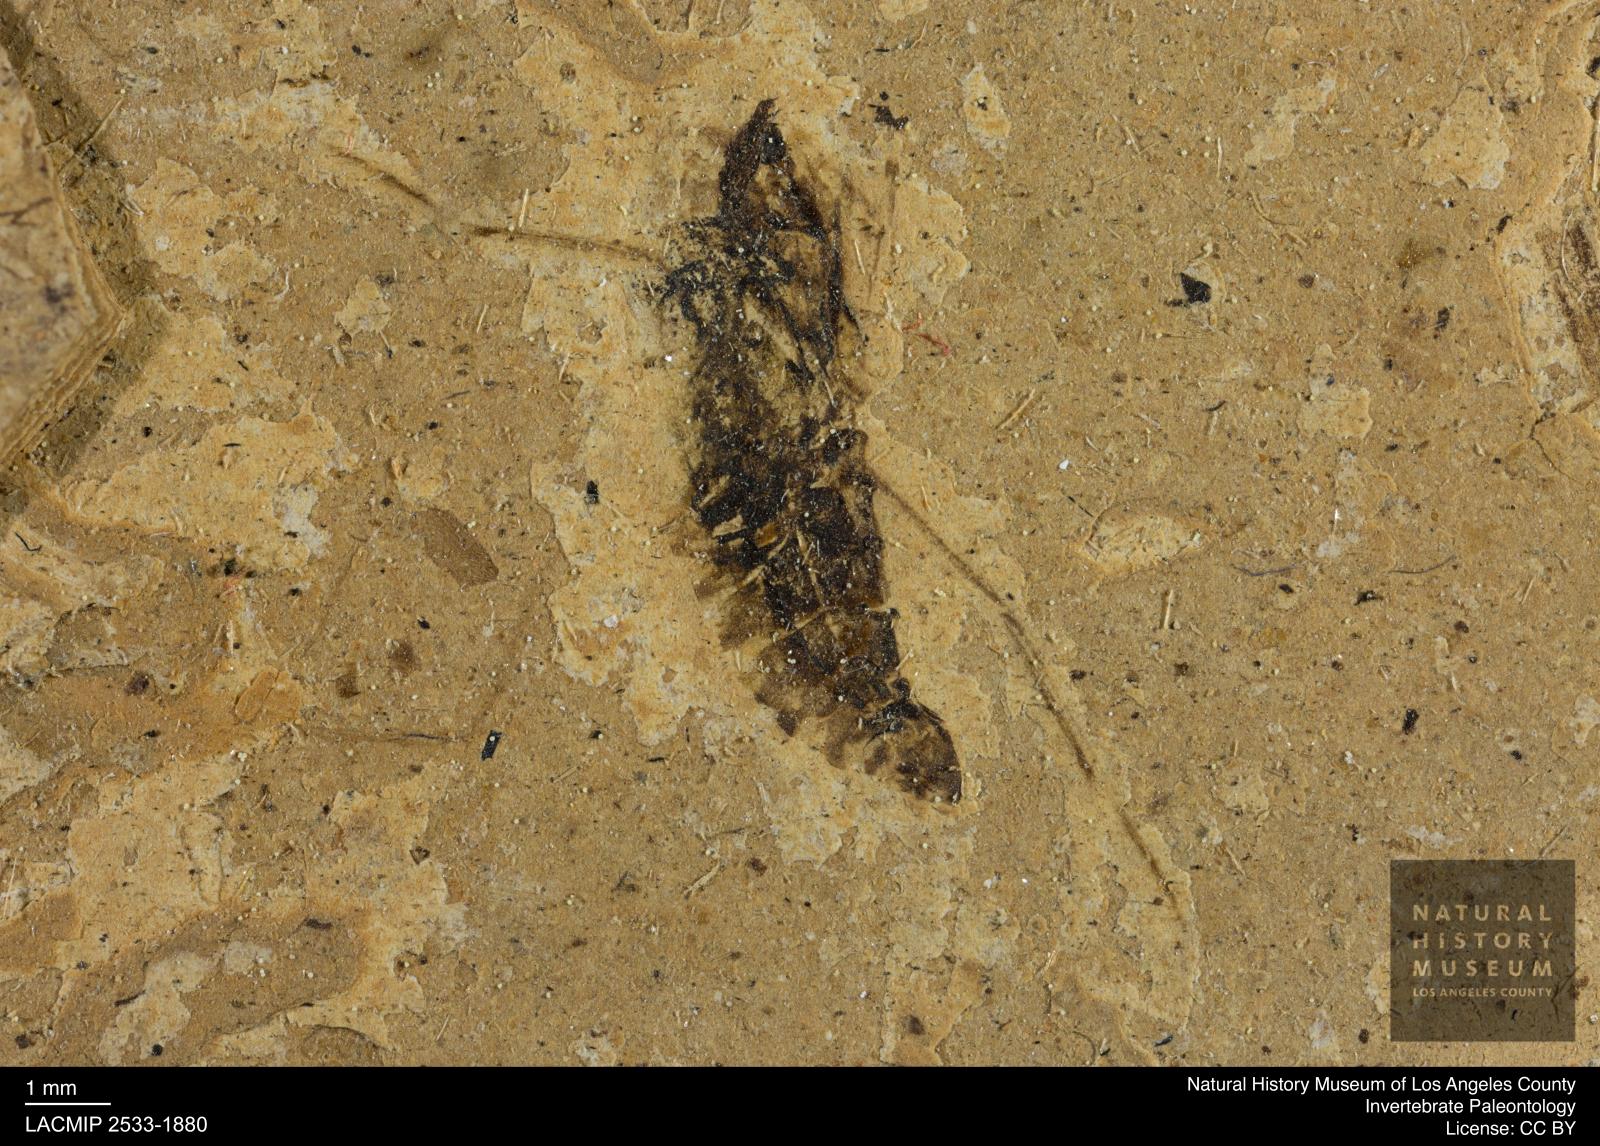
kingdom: Animalia
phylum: Arthropoda
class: Insecta
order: Hemiptera
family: Notonectidae
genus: Anisops
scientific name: Anisops Notonecta deichmuelleri
